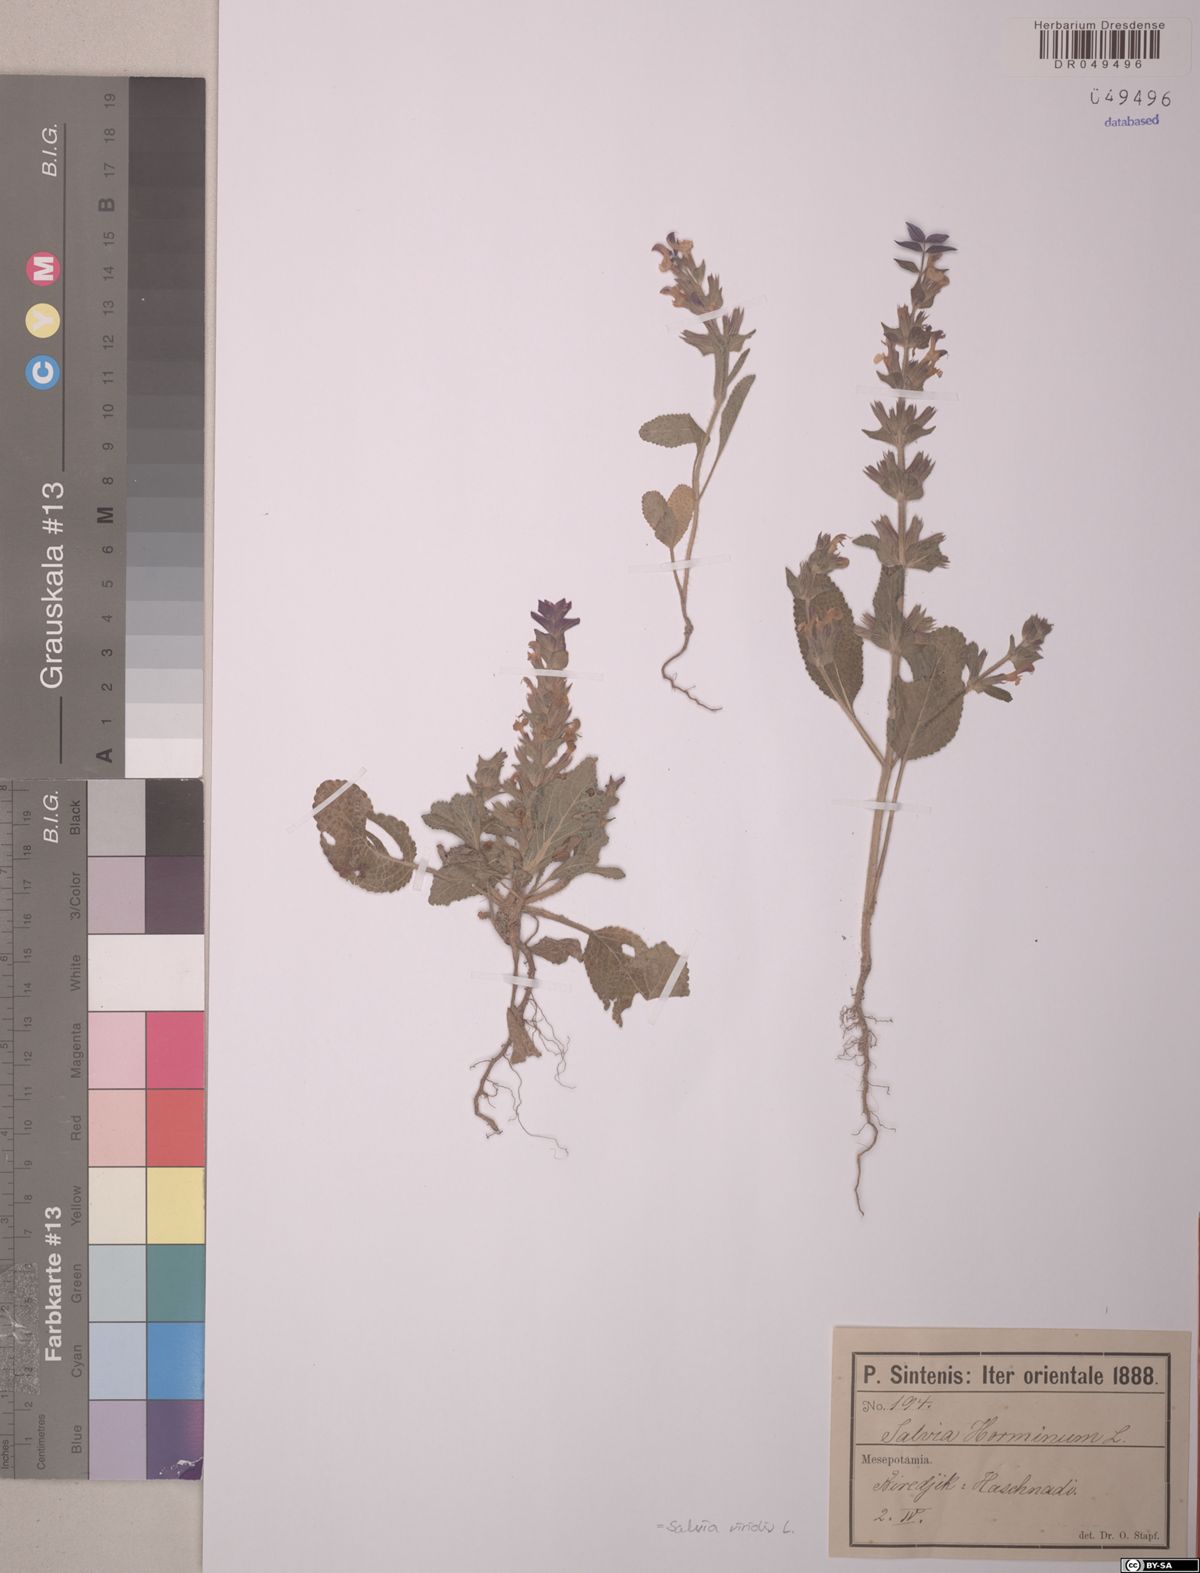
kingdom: Plantae
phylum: Tracheophyta
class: Magnoliopsida
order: Lamiales
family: Lamiaceae
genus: Salvia
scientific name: Salvia viridis
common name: Annual clary
